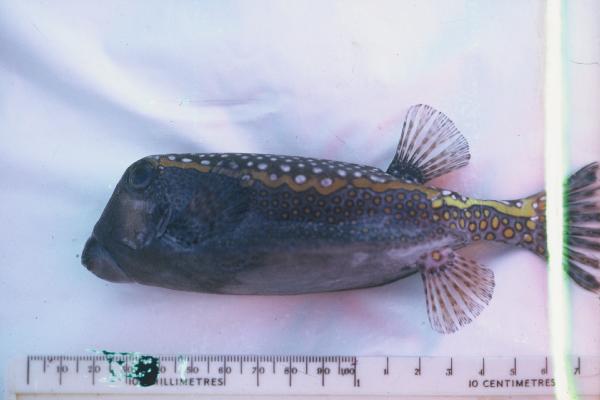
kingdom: Animalia
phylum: Chordata
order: Tetraodontiformes
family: Ostraciidae
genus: Ostracion
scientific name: Ostracion meleagris
